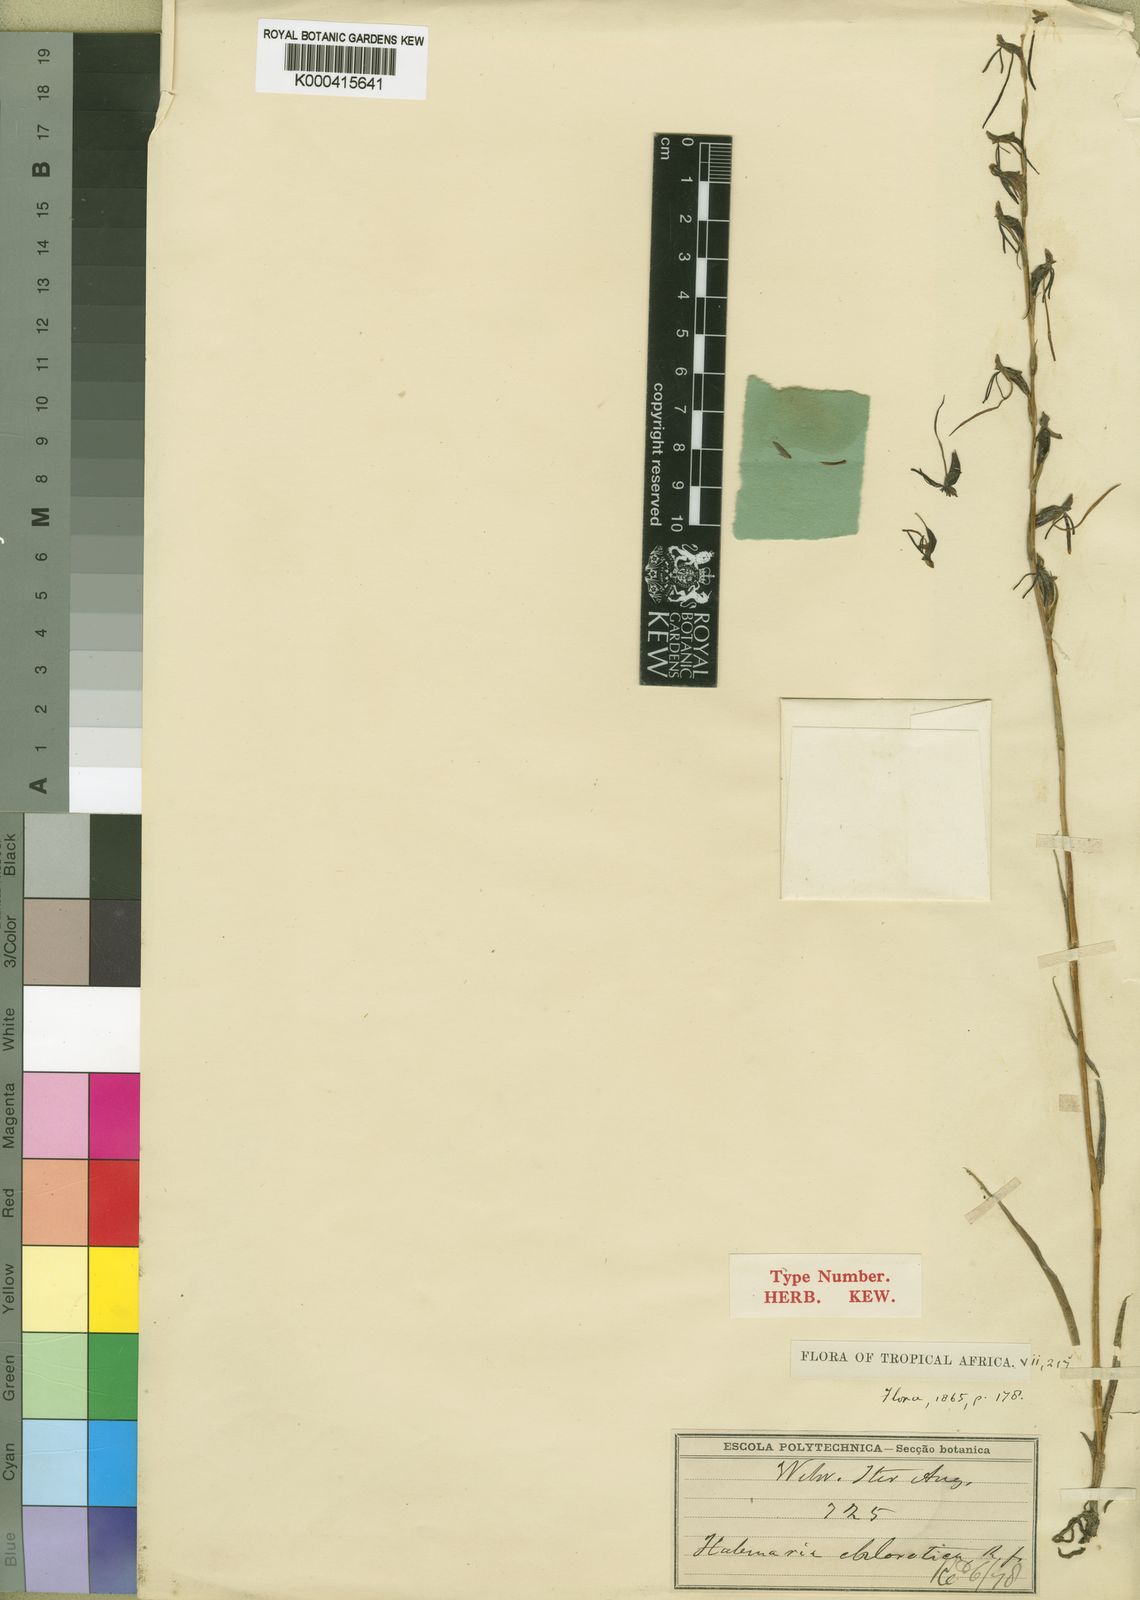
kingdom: Plantae
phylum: Tracheophyta
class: Liliopsida
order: Asparagales
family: Orchidaceae
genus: Habenaria
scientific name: Habenaria filicornis
